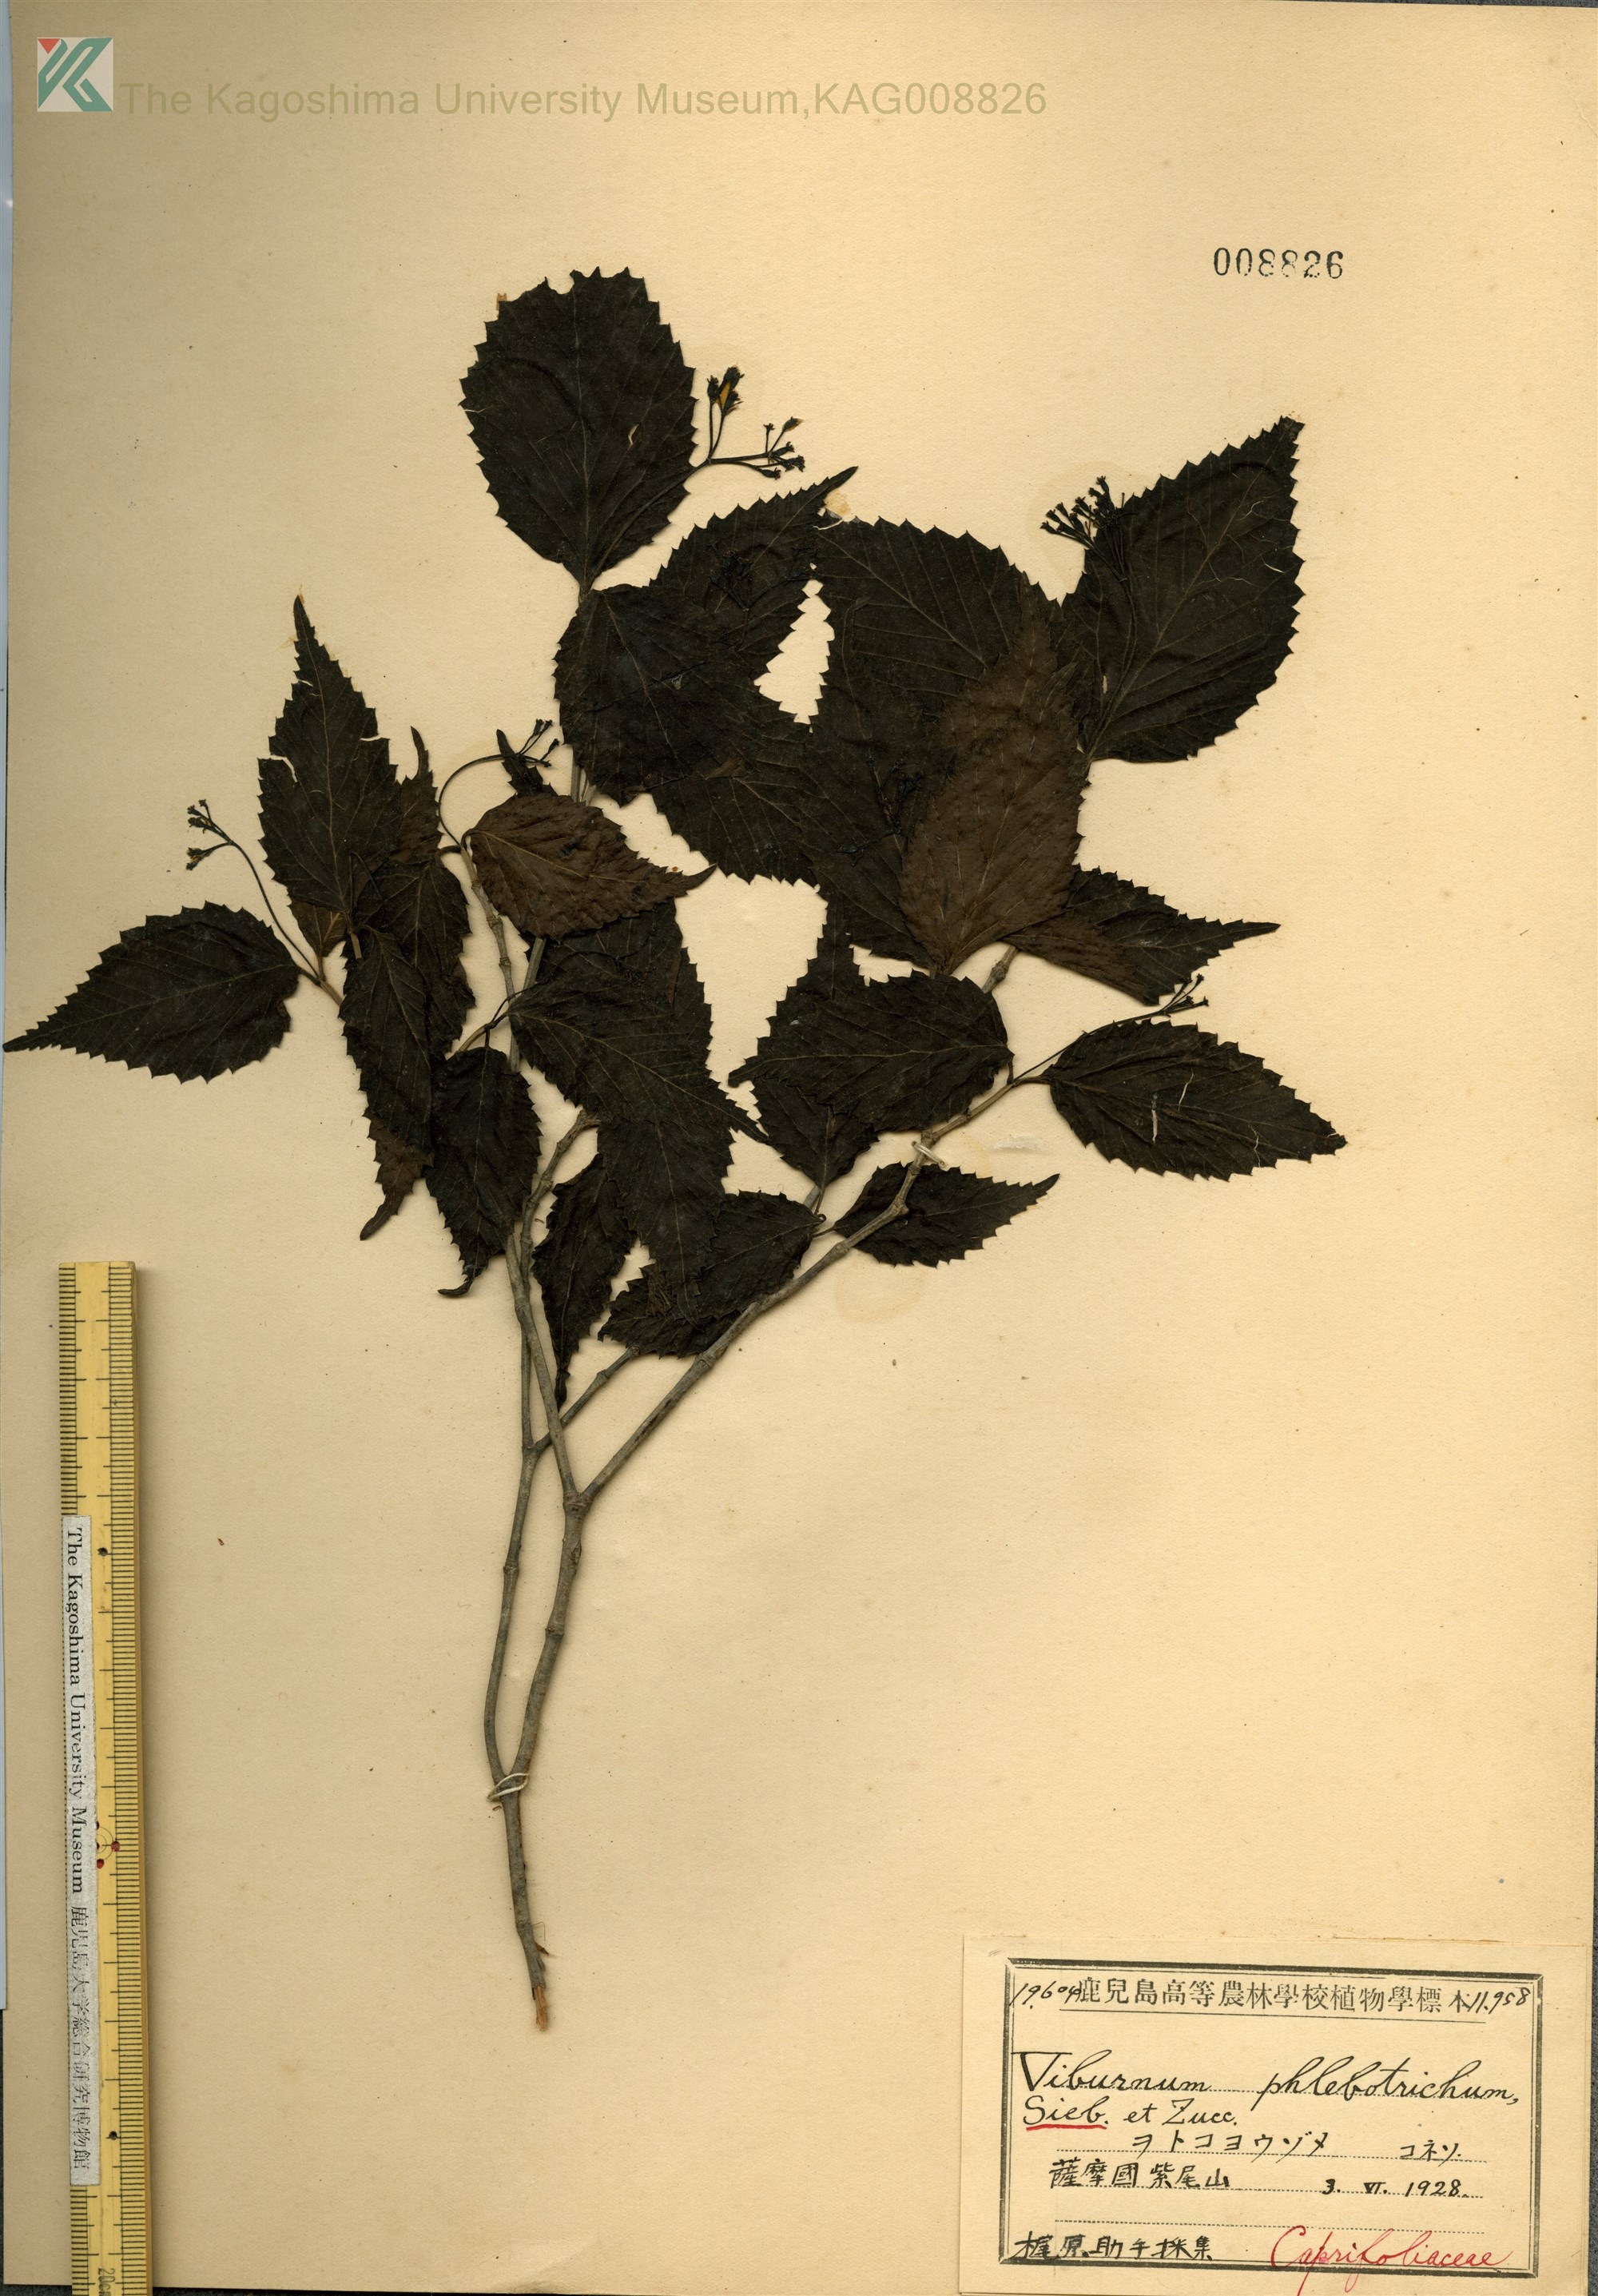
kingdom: Plantae
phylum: Tracheophyta
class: Magnoliopsida
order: Dipsacales
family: Viburnaceae
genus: Viburnum
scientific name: Viburnum phlebotrichum
